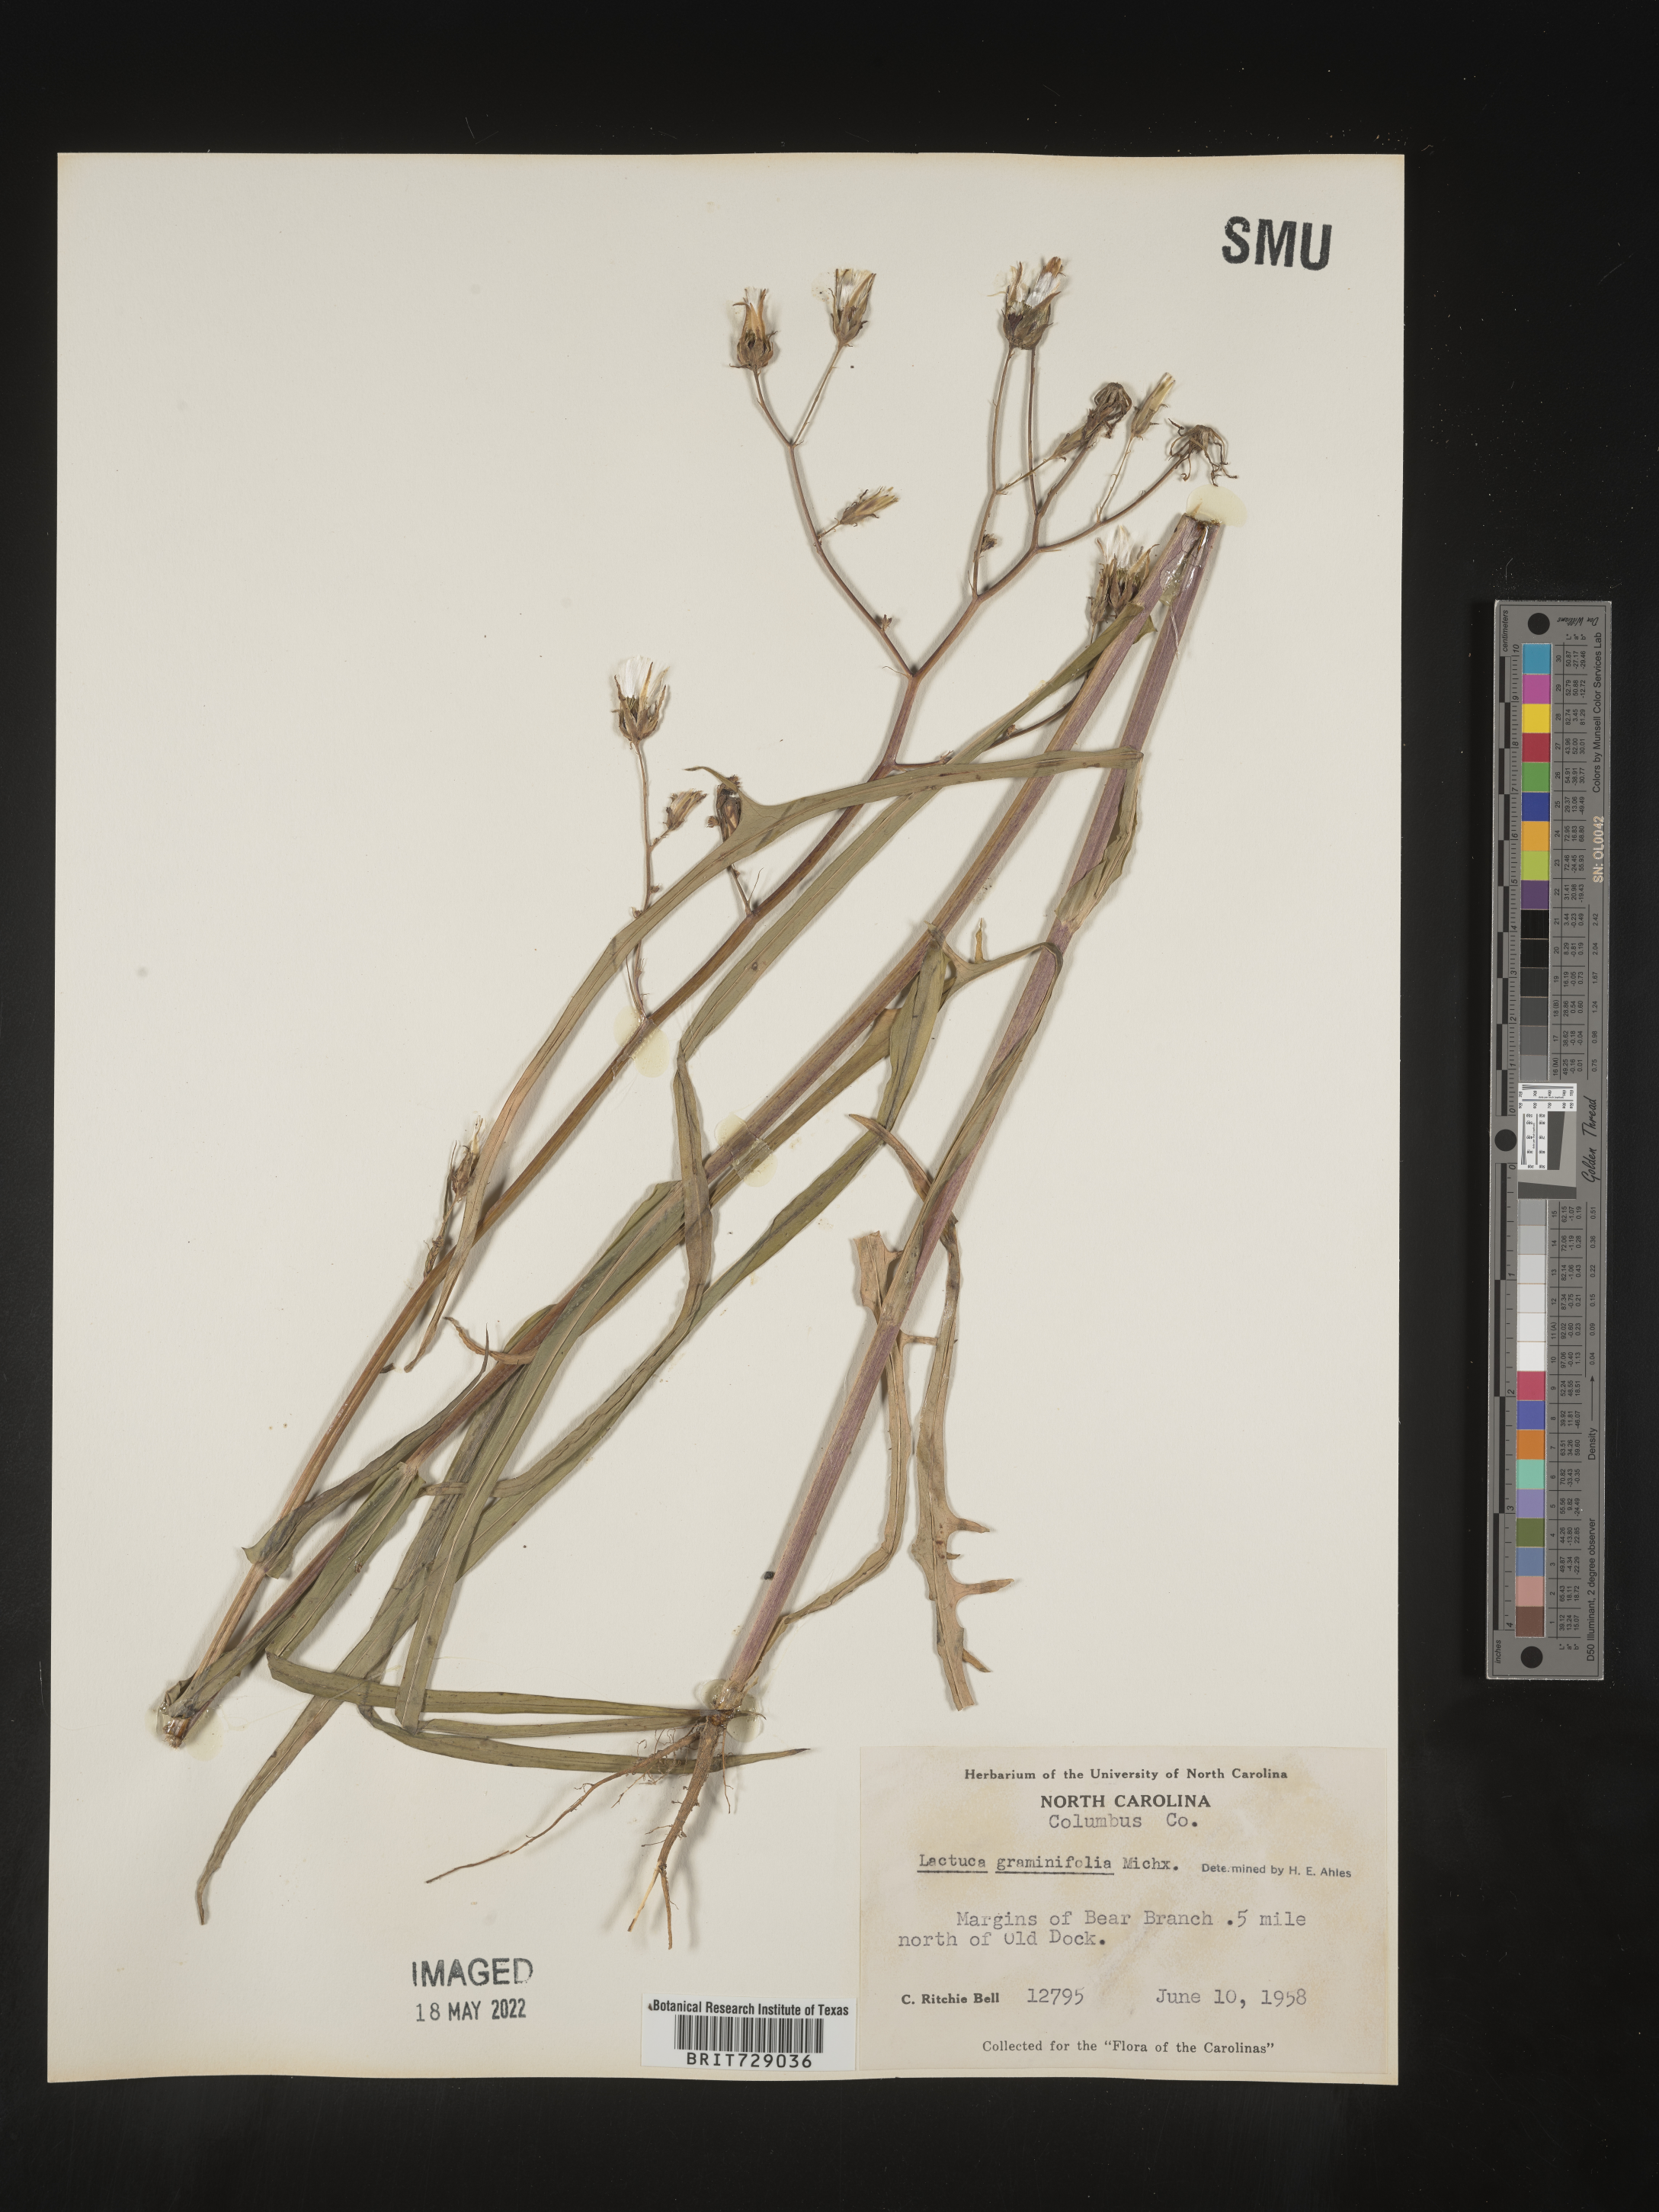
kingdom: Plantae
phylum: Tracheophyta
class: Magnoliopsida
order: Asterales
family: Asteraceae
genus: Lactuca
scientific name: Lactuca graminifolia
